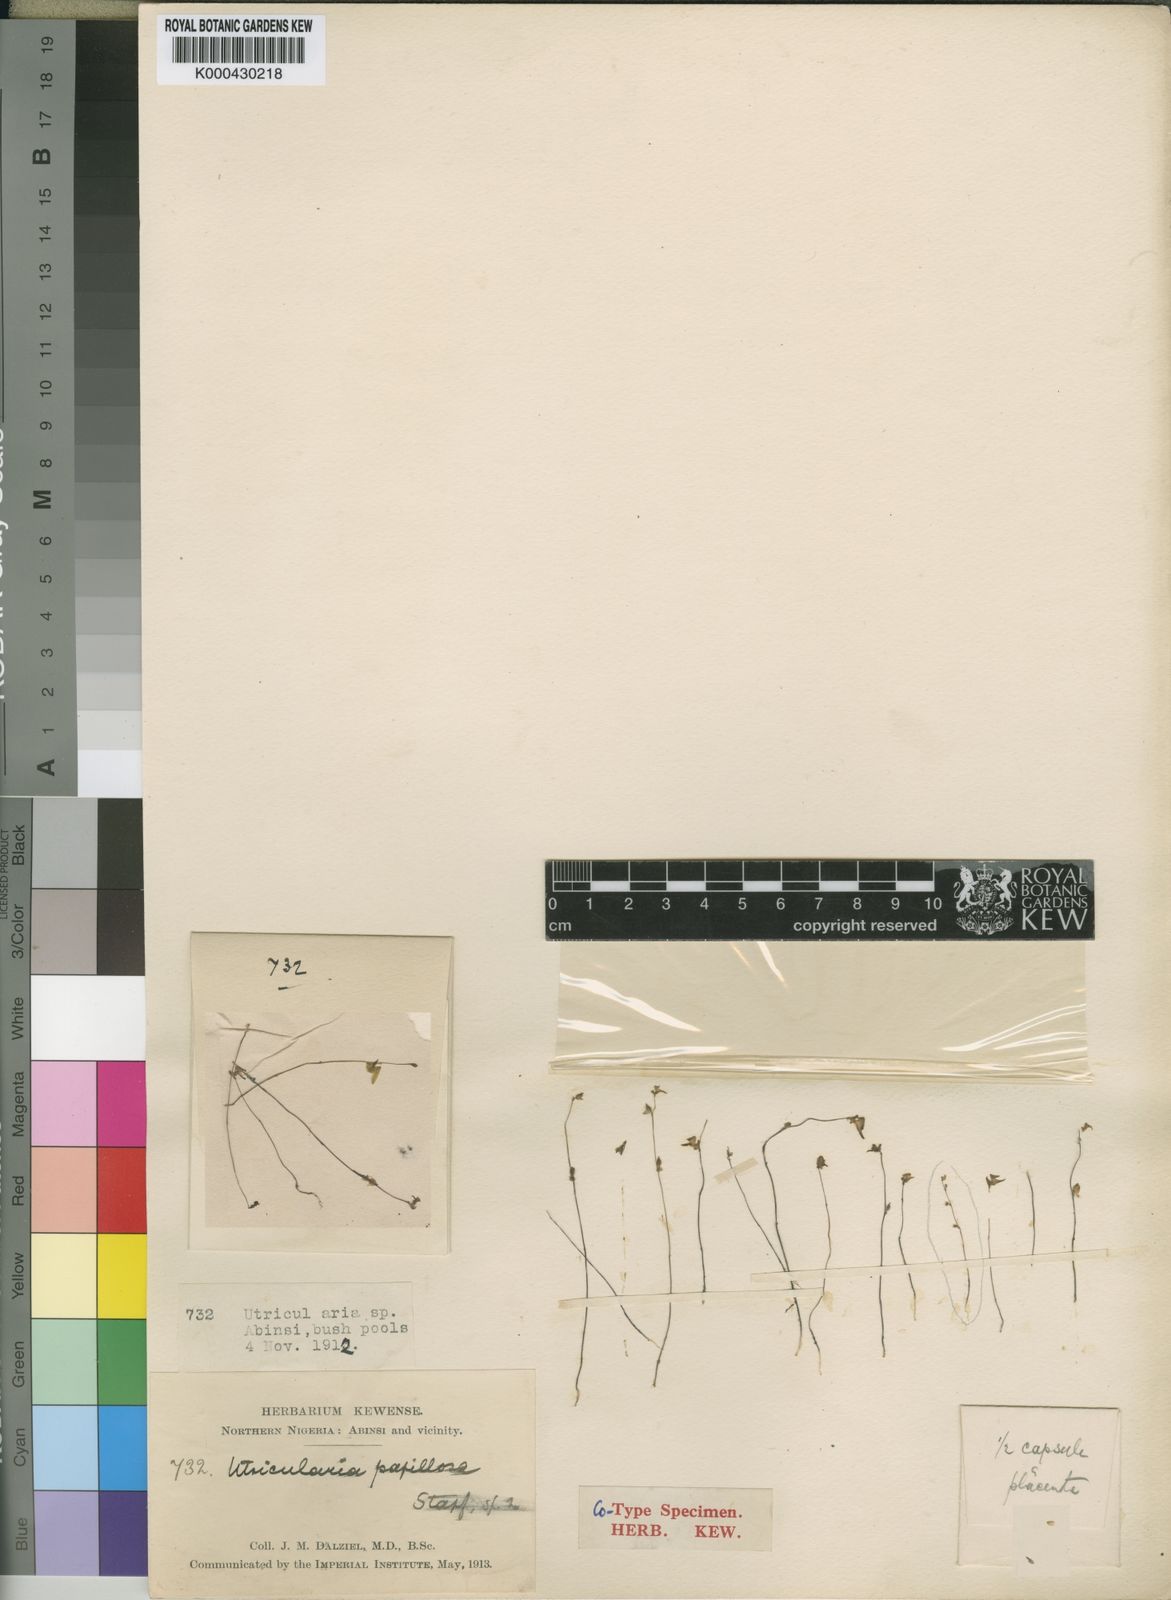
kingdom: Plantae
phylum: Tracheophyta
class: Magnoliopsida
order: Lamiales
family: Lentibulariaceae
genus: Utricularia
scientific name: Utricularia pubescens
